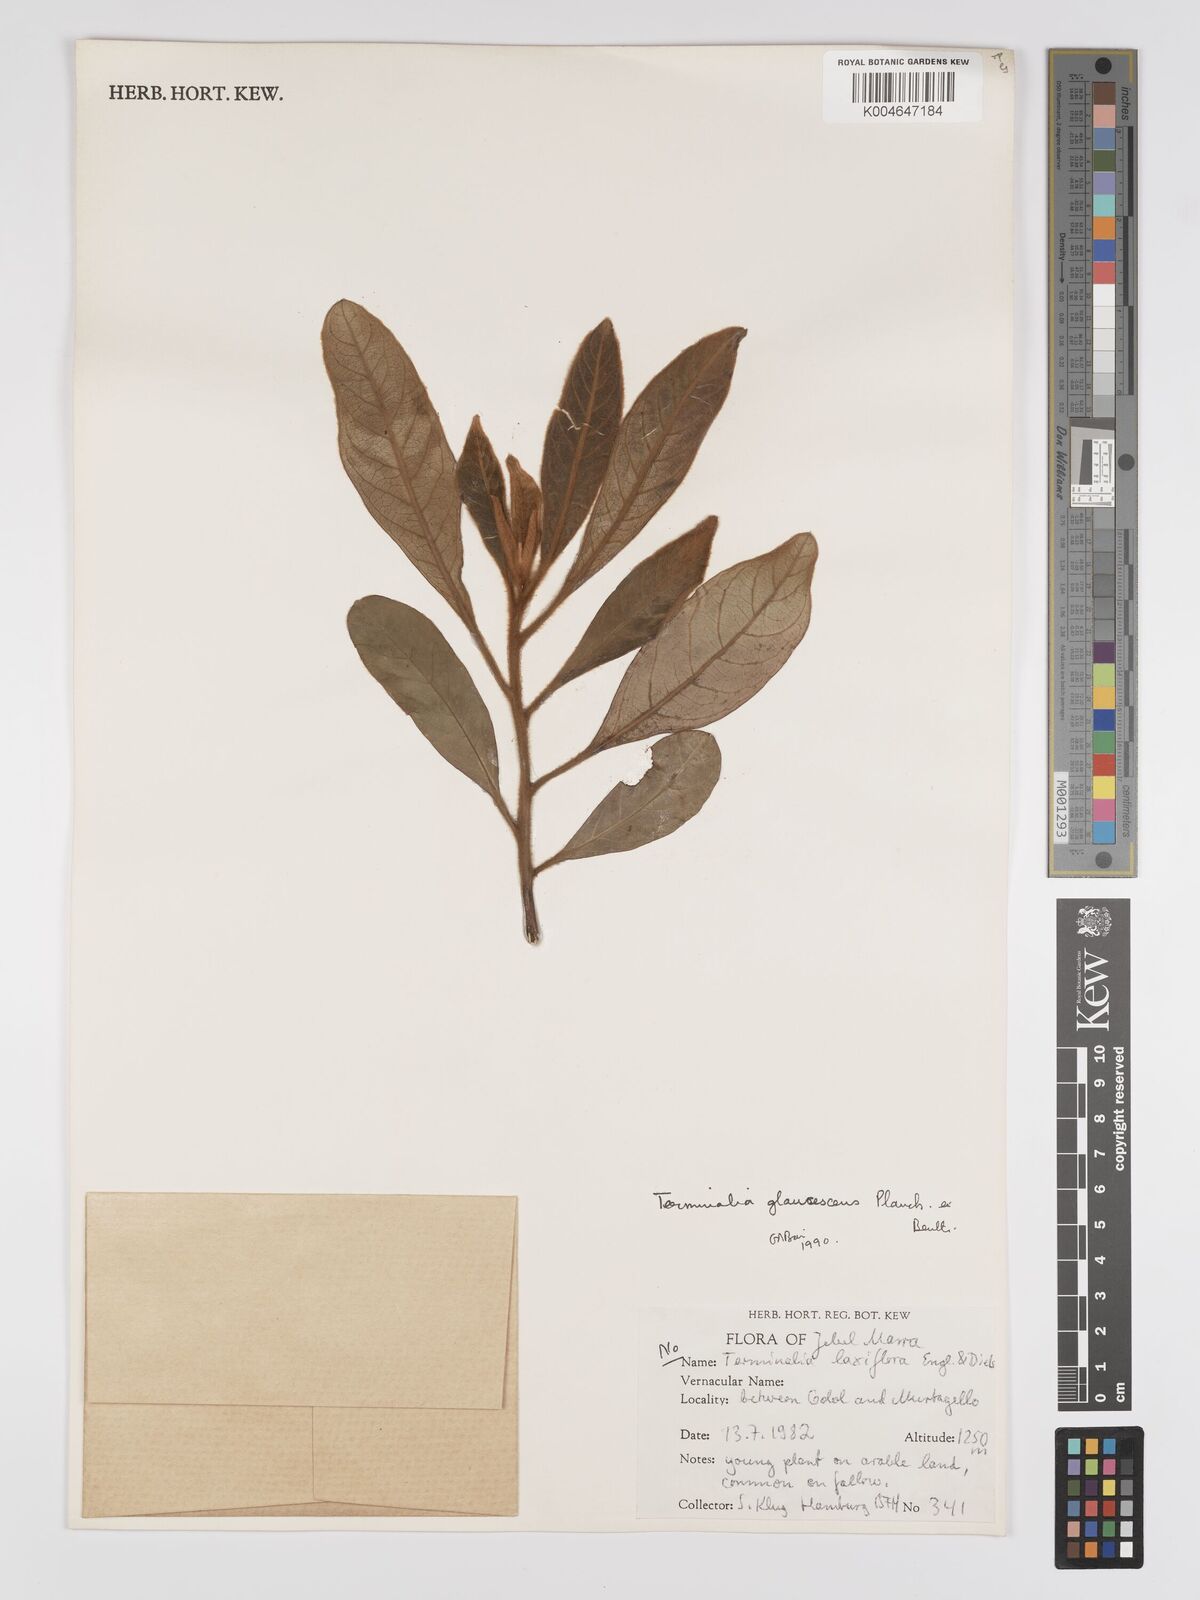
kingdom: Plantae
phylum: Tracheophyta
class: Magnoliopsida
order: Myrtales
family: Combretaceae
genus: Terminalia
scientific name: Terminalia schimperiana
